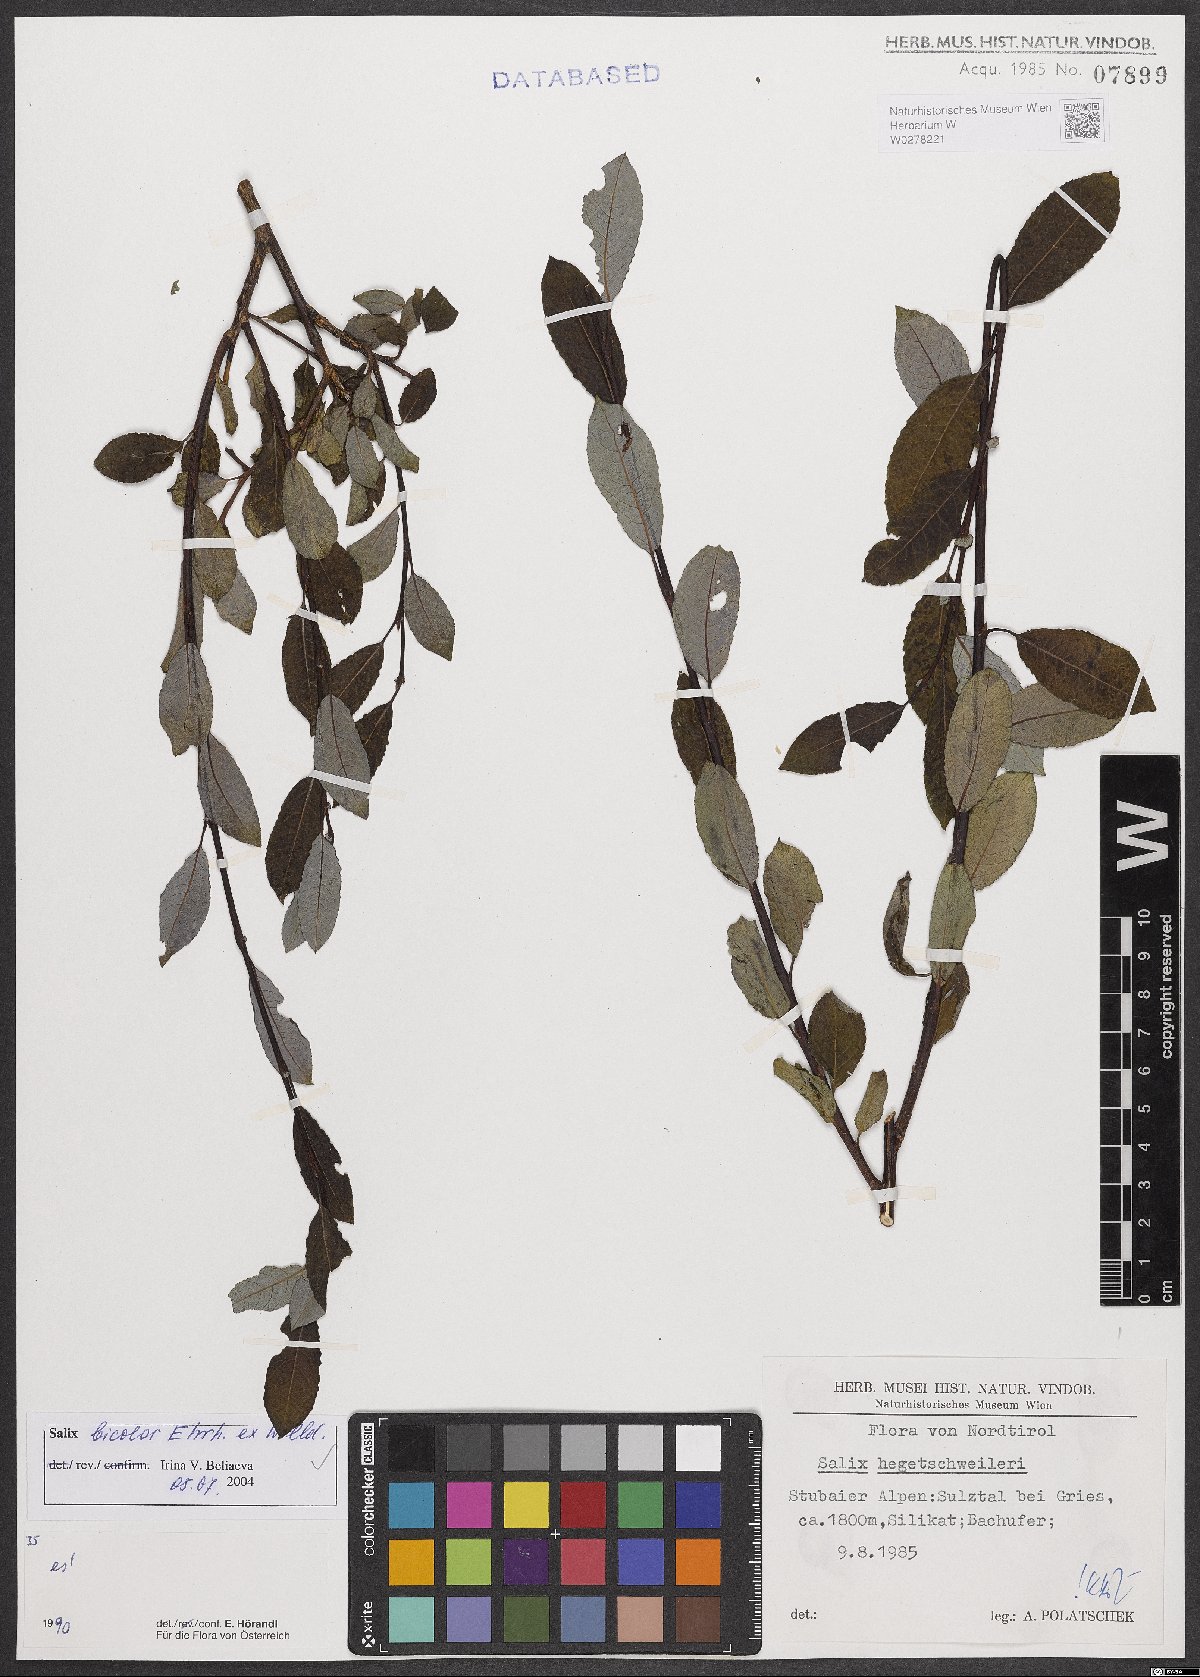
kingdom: Plantae
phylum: Tracheophyta
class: Magnoliopsida
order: Malpighiales
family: Salicaceae
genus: Salix
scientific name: Salix bicolor
